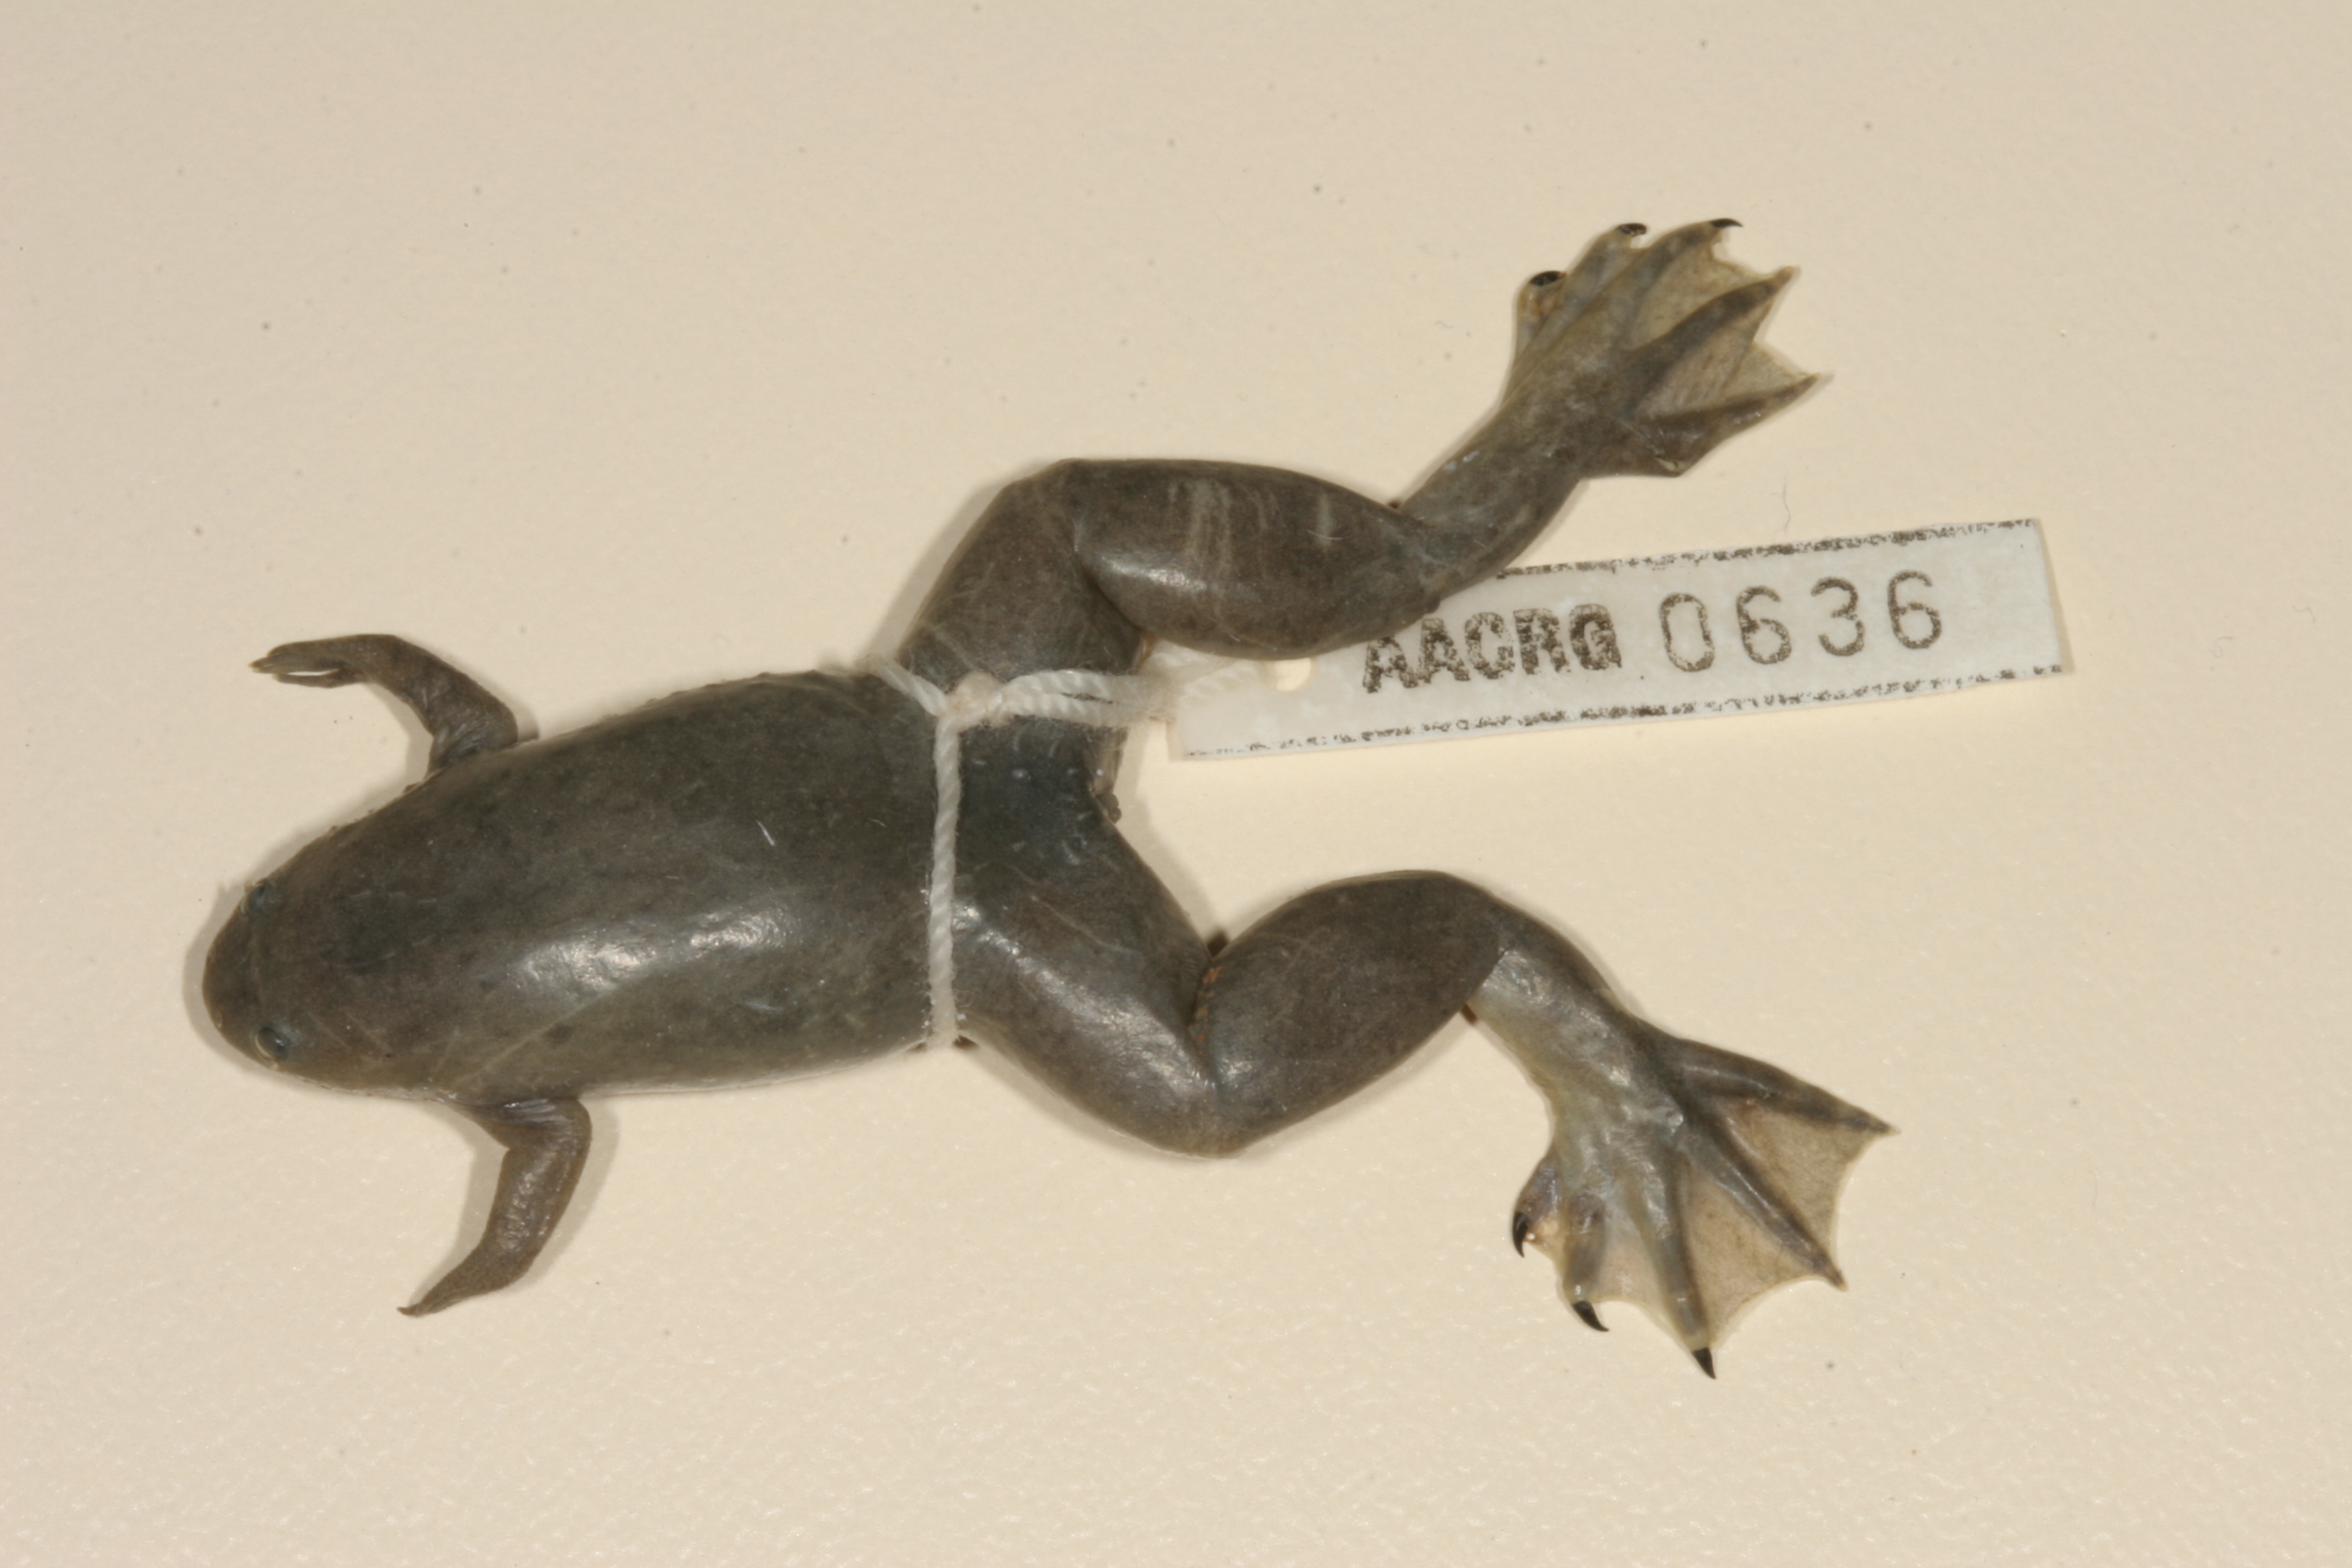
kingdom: Animalia
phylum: Chordata
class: Amphibia
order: Anura
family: Pipidae
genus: Xenopus
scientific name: Xenopus tropicalis
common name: Forest clawed frog
